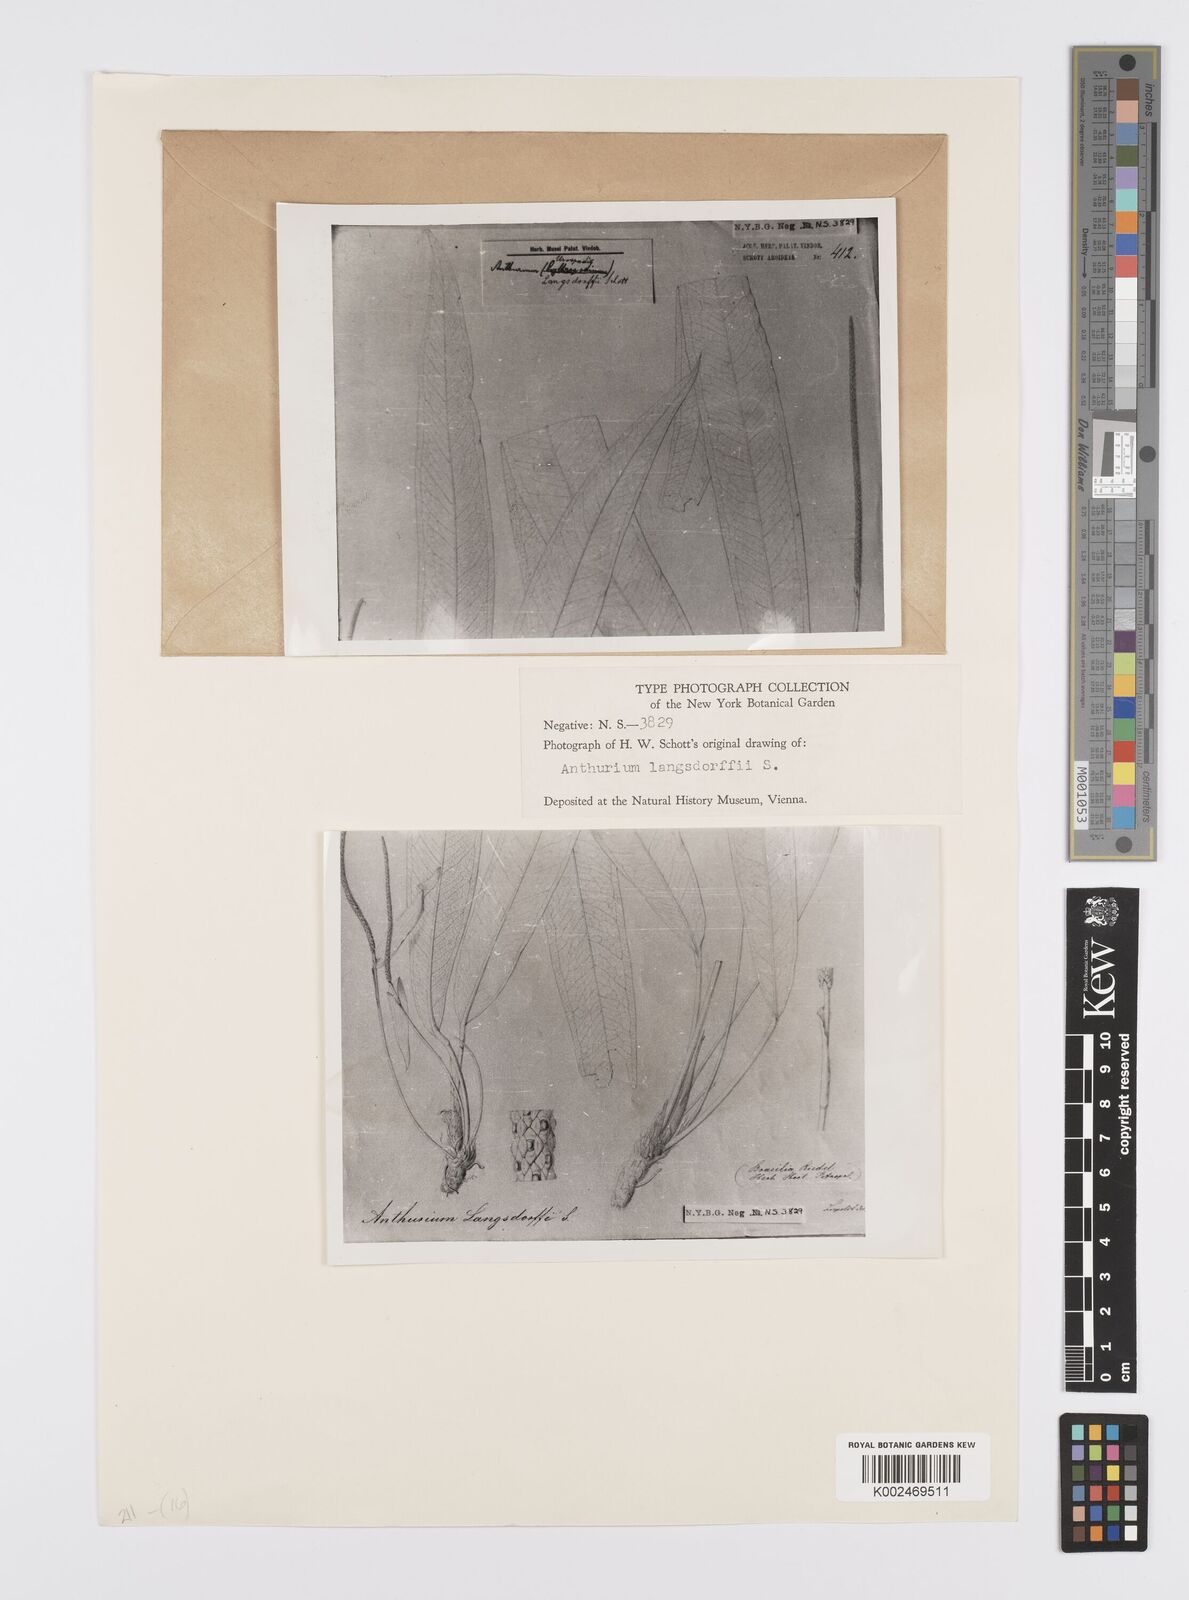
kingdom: Plantae
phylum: Tracheophyta
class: Liliopsida
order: Alismatales
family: Araceae
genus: Anthurium
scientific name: Anthurium langsdorffii
